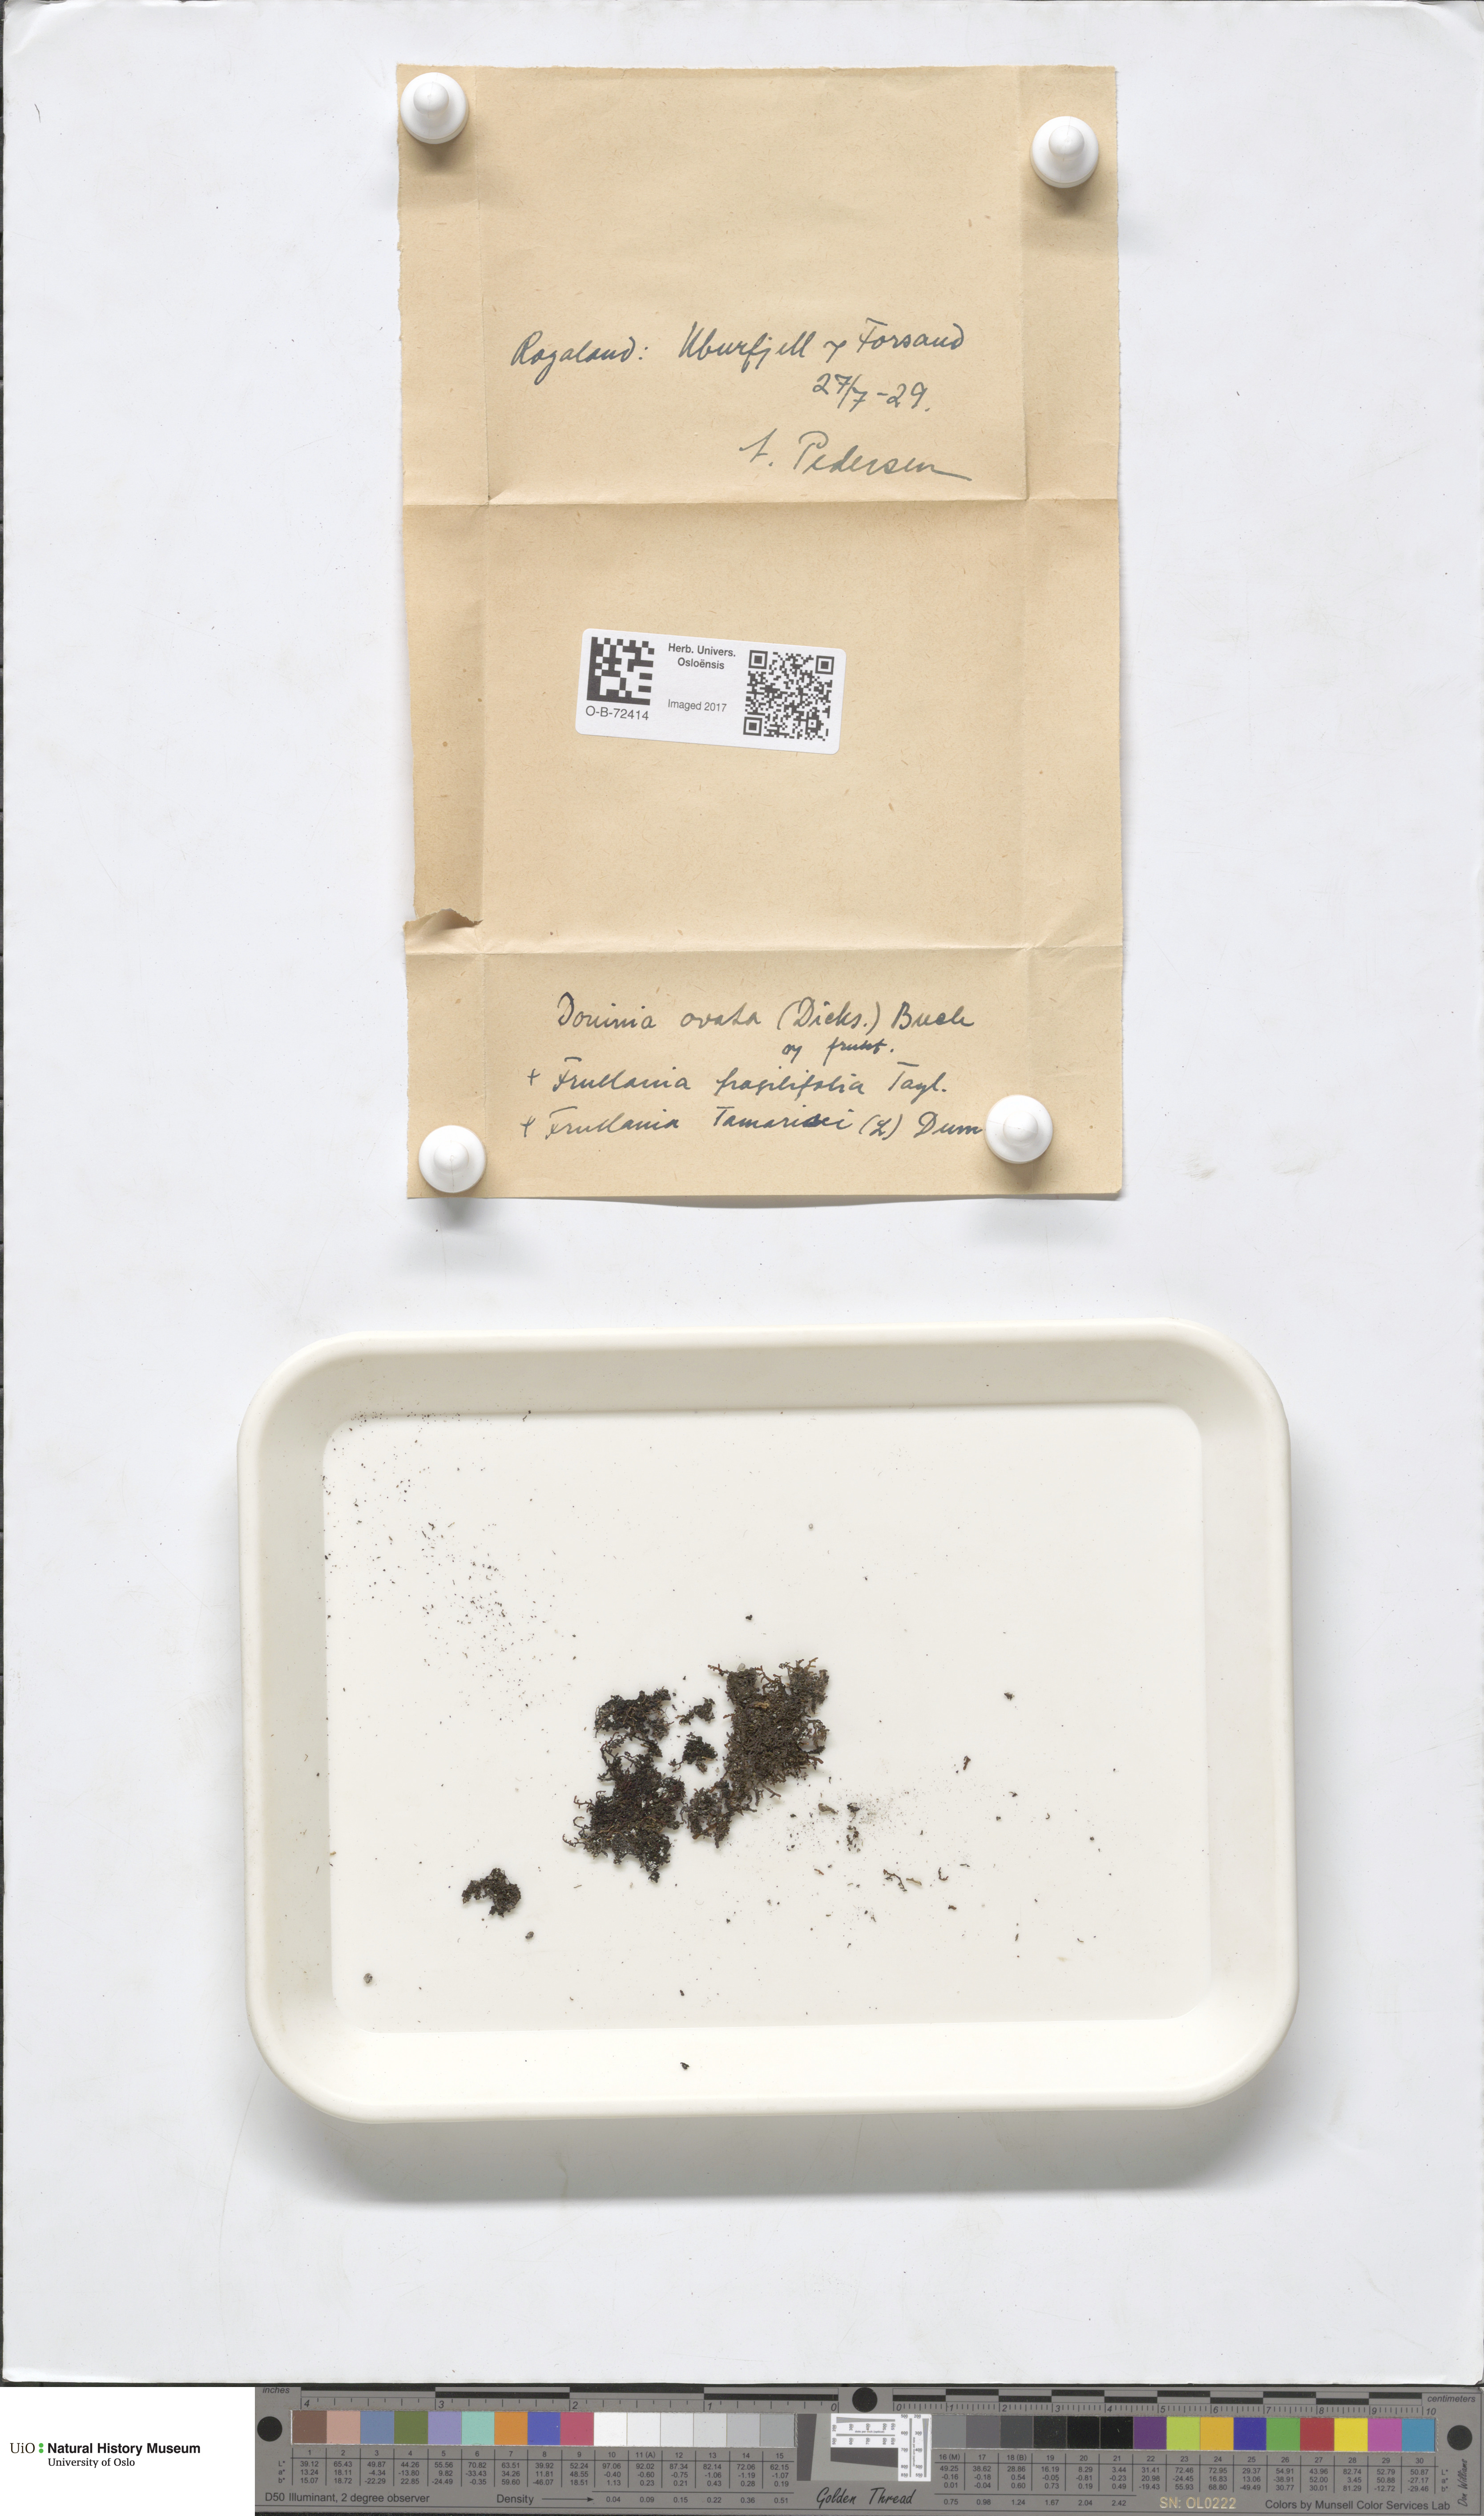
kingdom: Plantae
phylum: Marchantiophyta
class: Jungermanniopsida
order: Jungermanniales
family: Scapaniaceae
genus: Douinia
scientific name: Douinia ovata
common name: Waxy earwort
